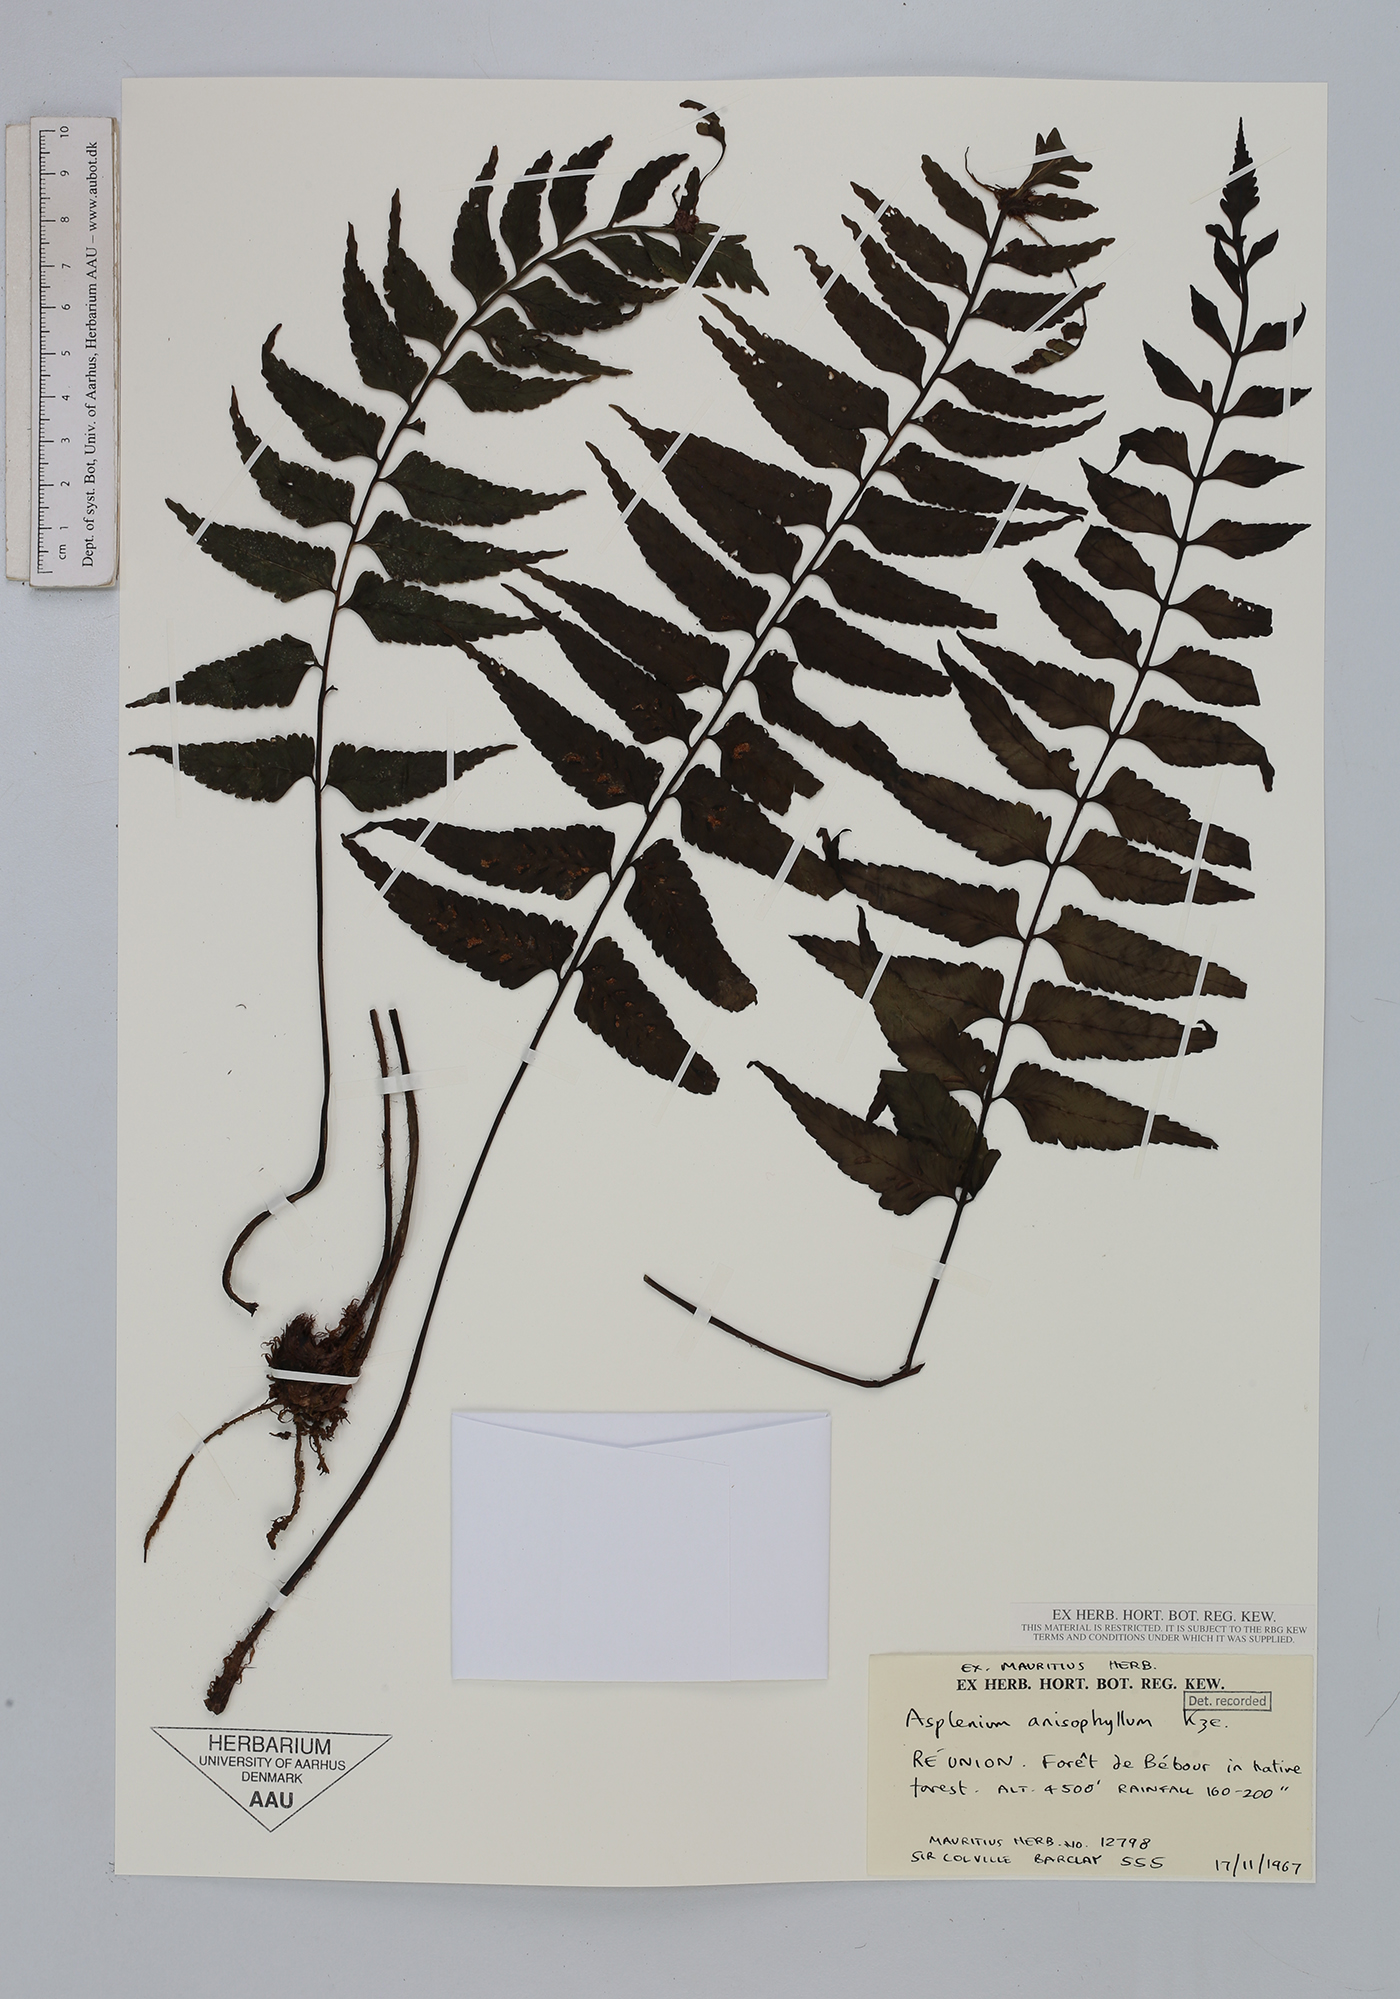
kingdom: Plantae
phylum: Tracheophyta
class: Polypodiopsida
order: Polypodiales
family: Aspleniaceae
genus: Asplenium
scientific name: Asplenium anisophyllum
